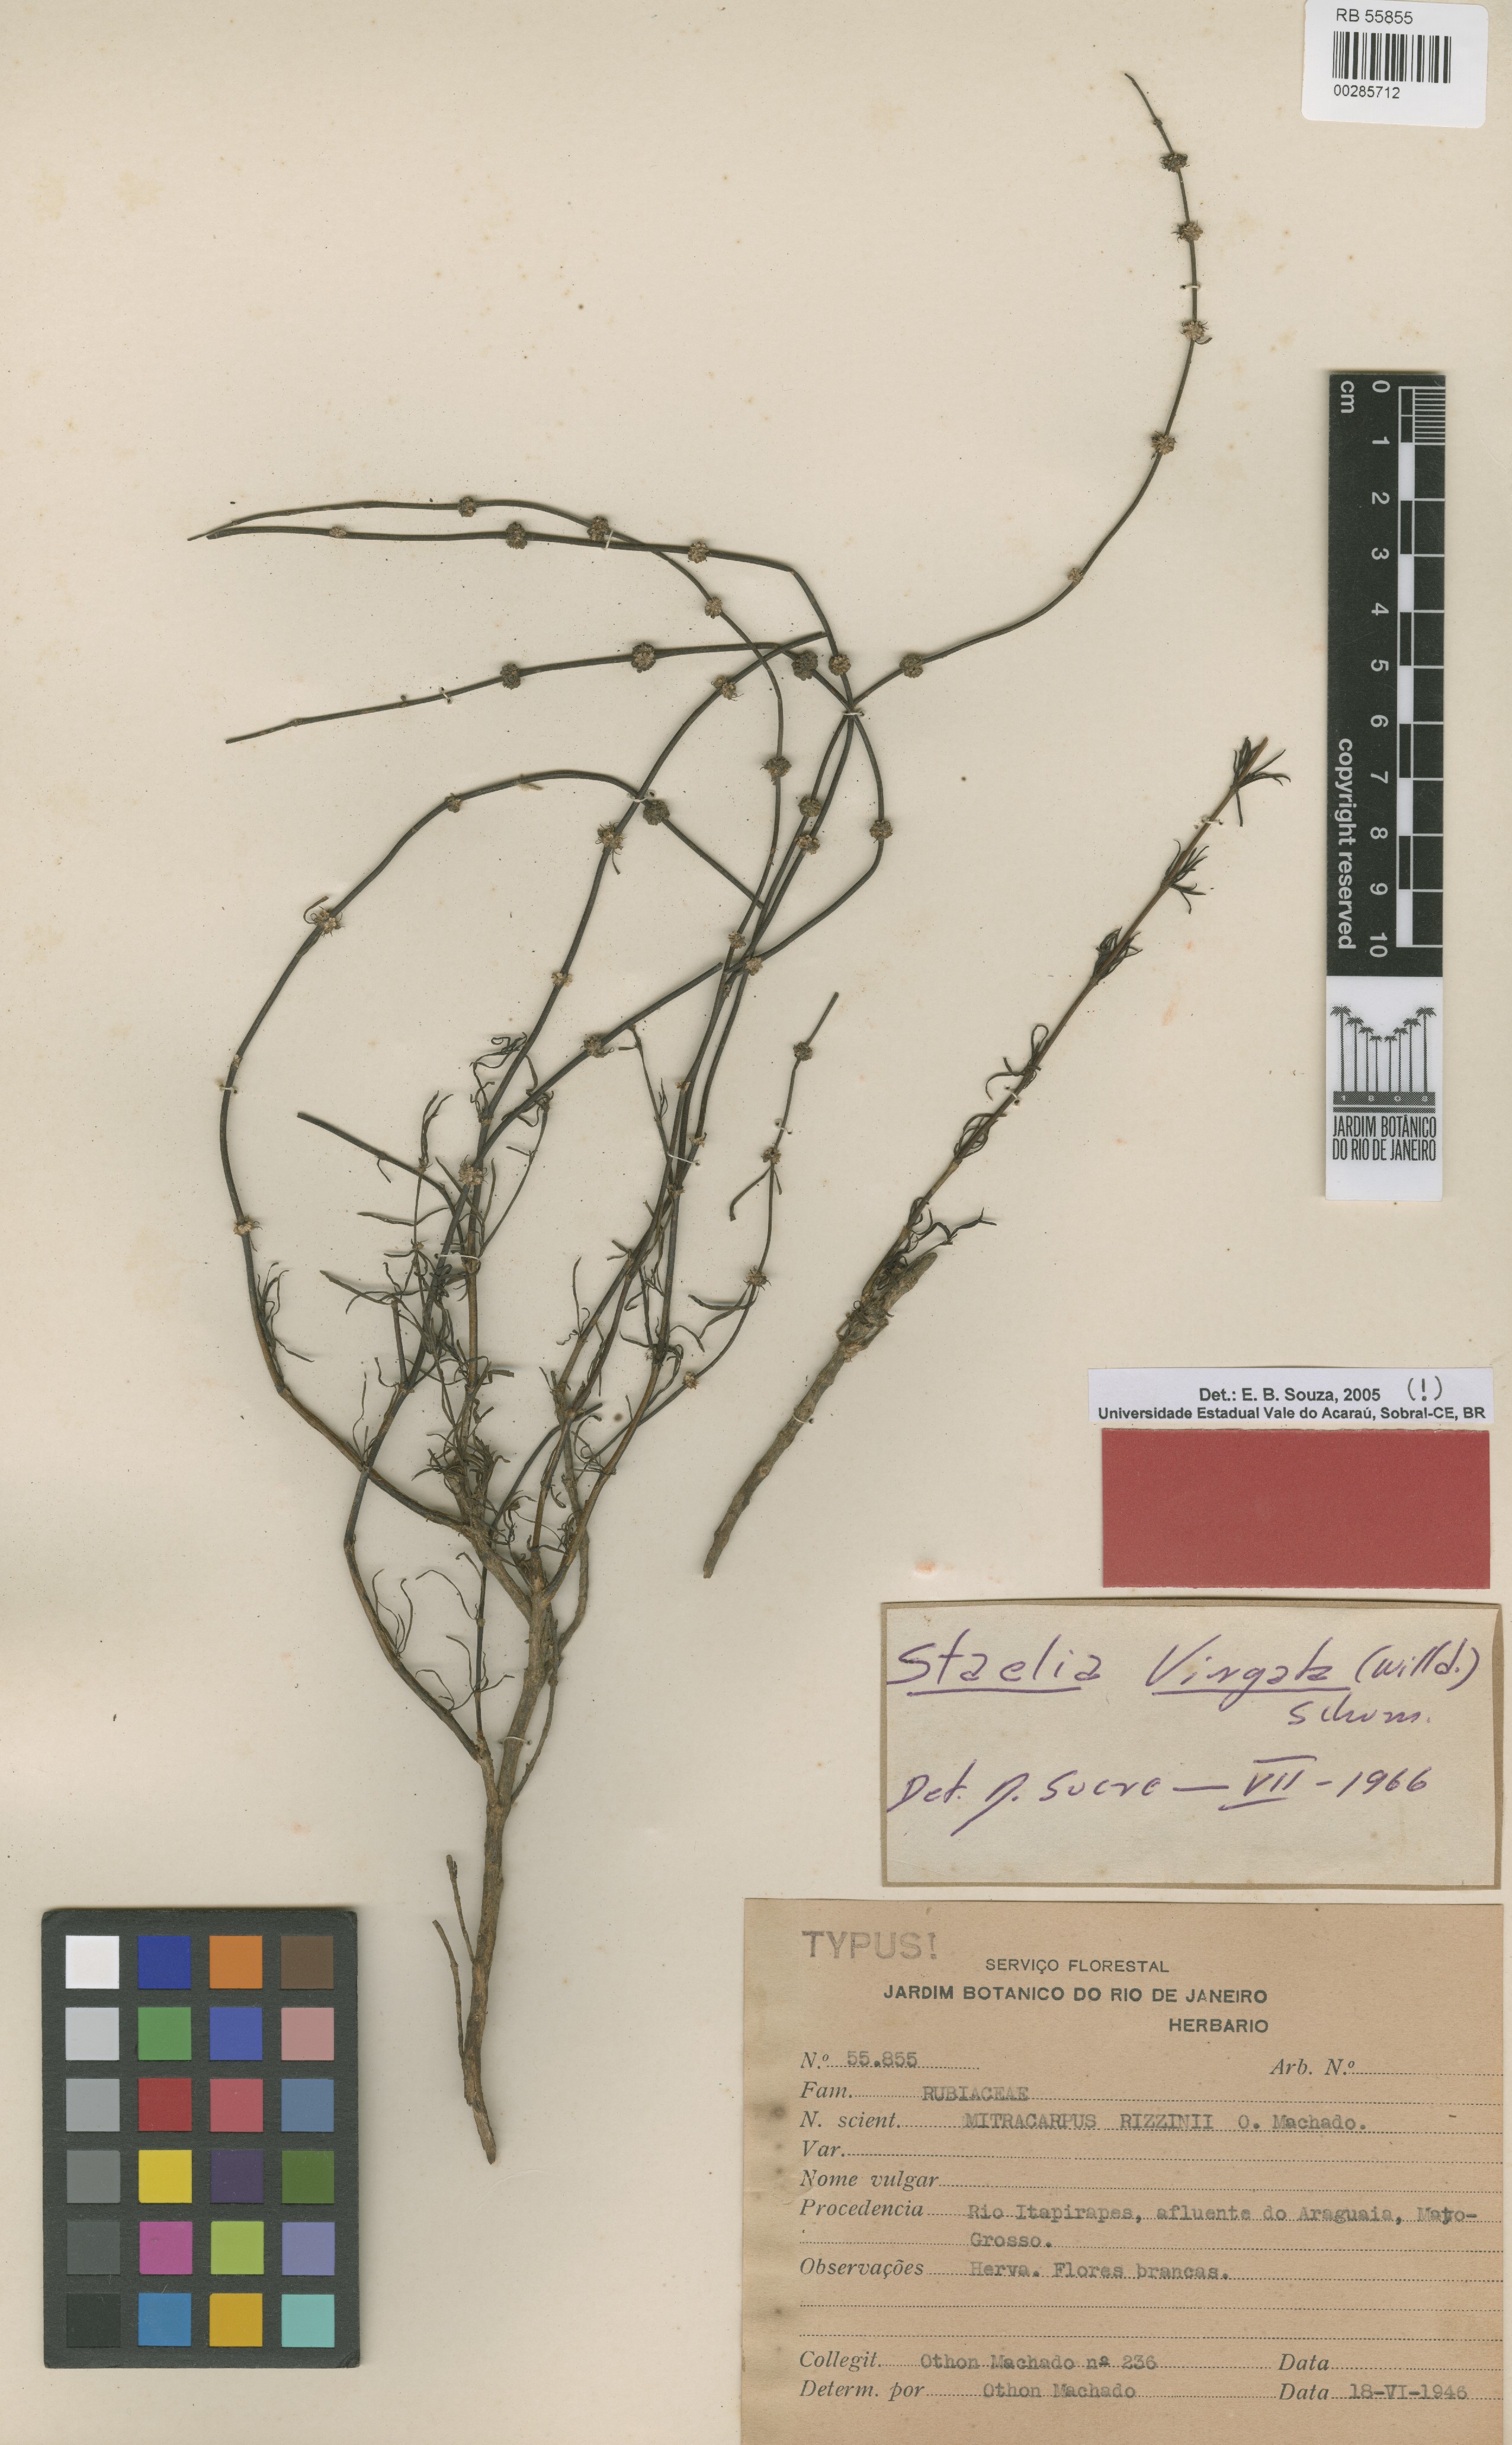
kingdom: Plantae
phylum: Tracheophyta
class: Magnoliopsida
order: Gentianales
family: Rubiaceae
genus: Mitracarpus
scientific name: Mitracarpus rizzinianus
